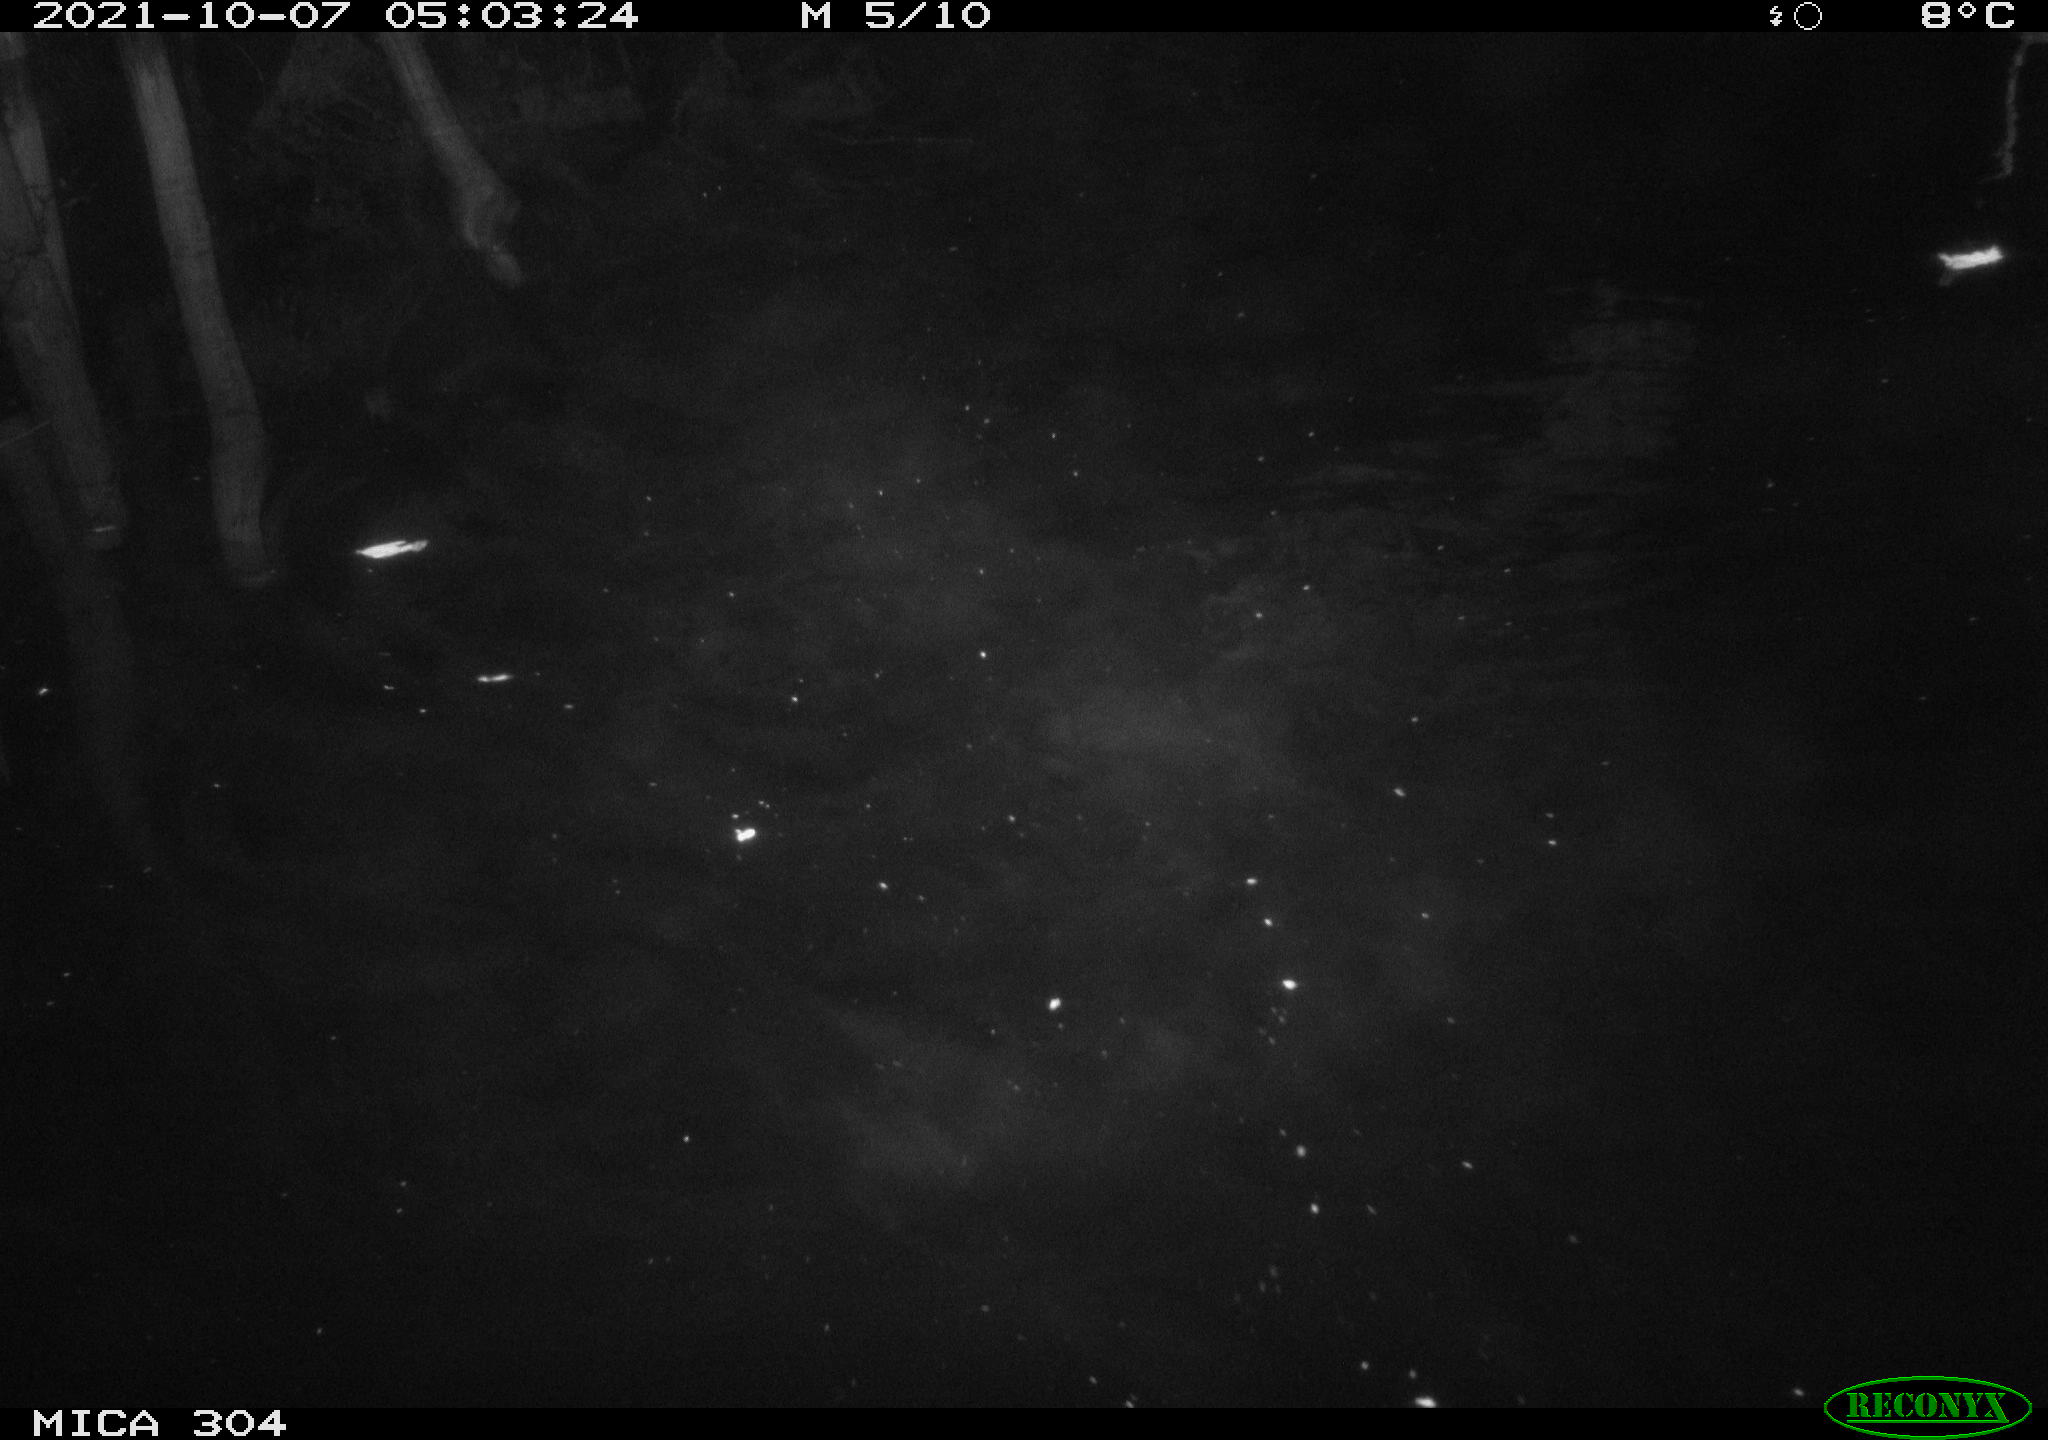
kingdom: Animalia
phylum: Chordata
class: Mammalia
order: Rodentia
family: Cricetidae
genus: Ondatra
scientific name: Ondatra zibethicus
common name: Muskrat
